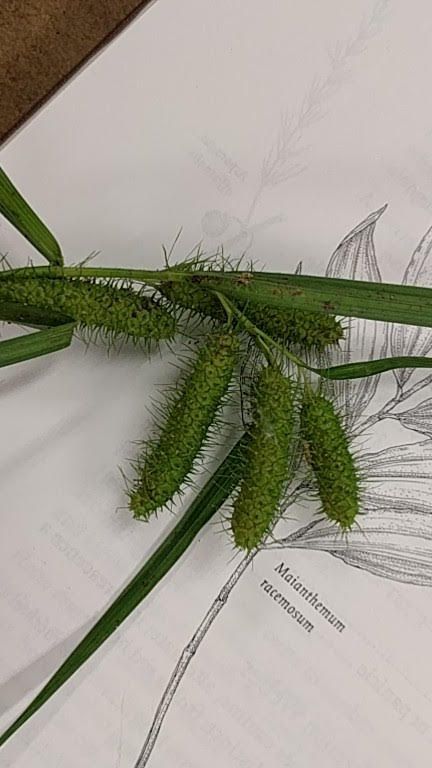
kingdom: Plantae
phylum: Tracheophyta
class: Liliopsida
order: Poales
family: Cyperaceae
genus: Carex
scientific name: Carex frankii
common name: Frank's sedge
